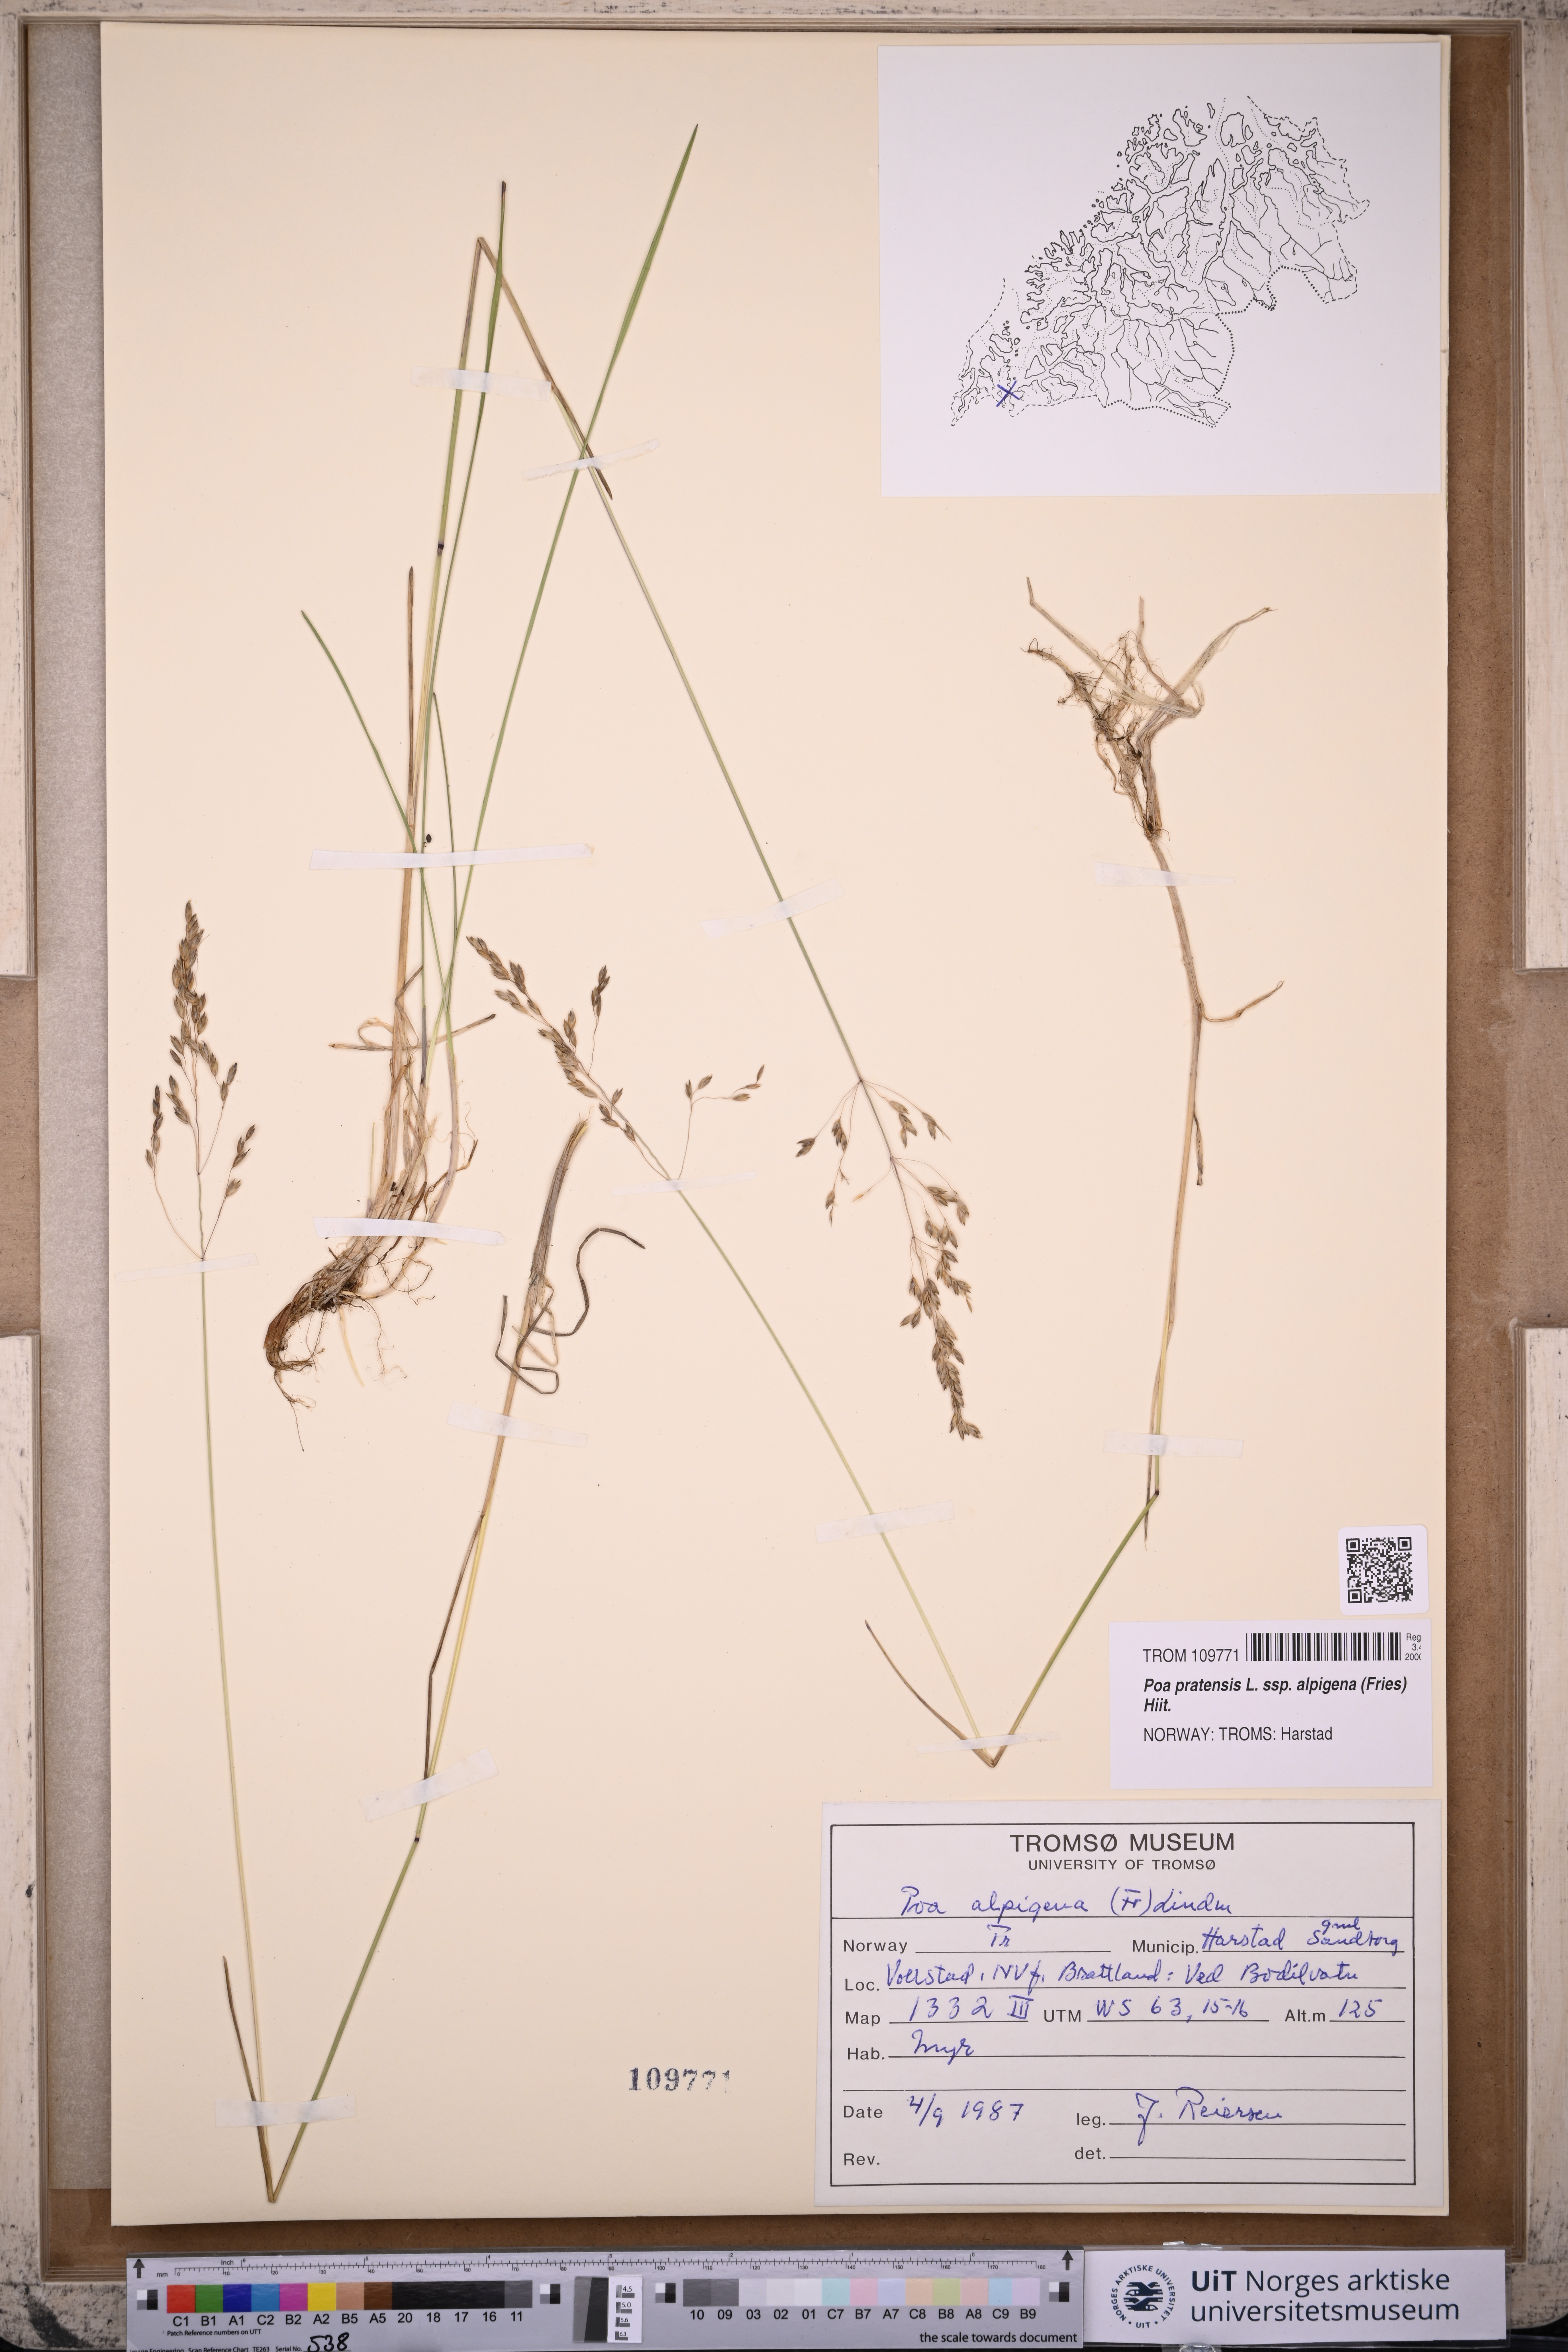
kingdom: Plantae
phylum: Tracheophyta
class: Liliopsida
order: Poales
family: Poaceae
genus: Poa
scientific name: Poa alpigena
